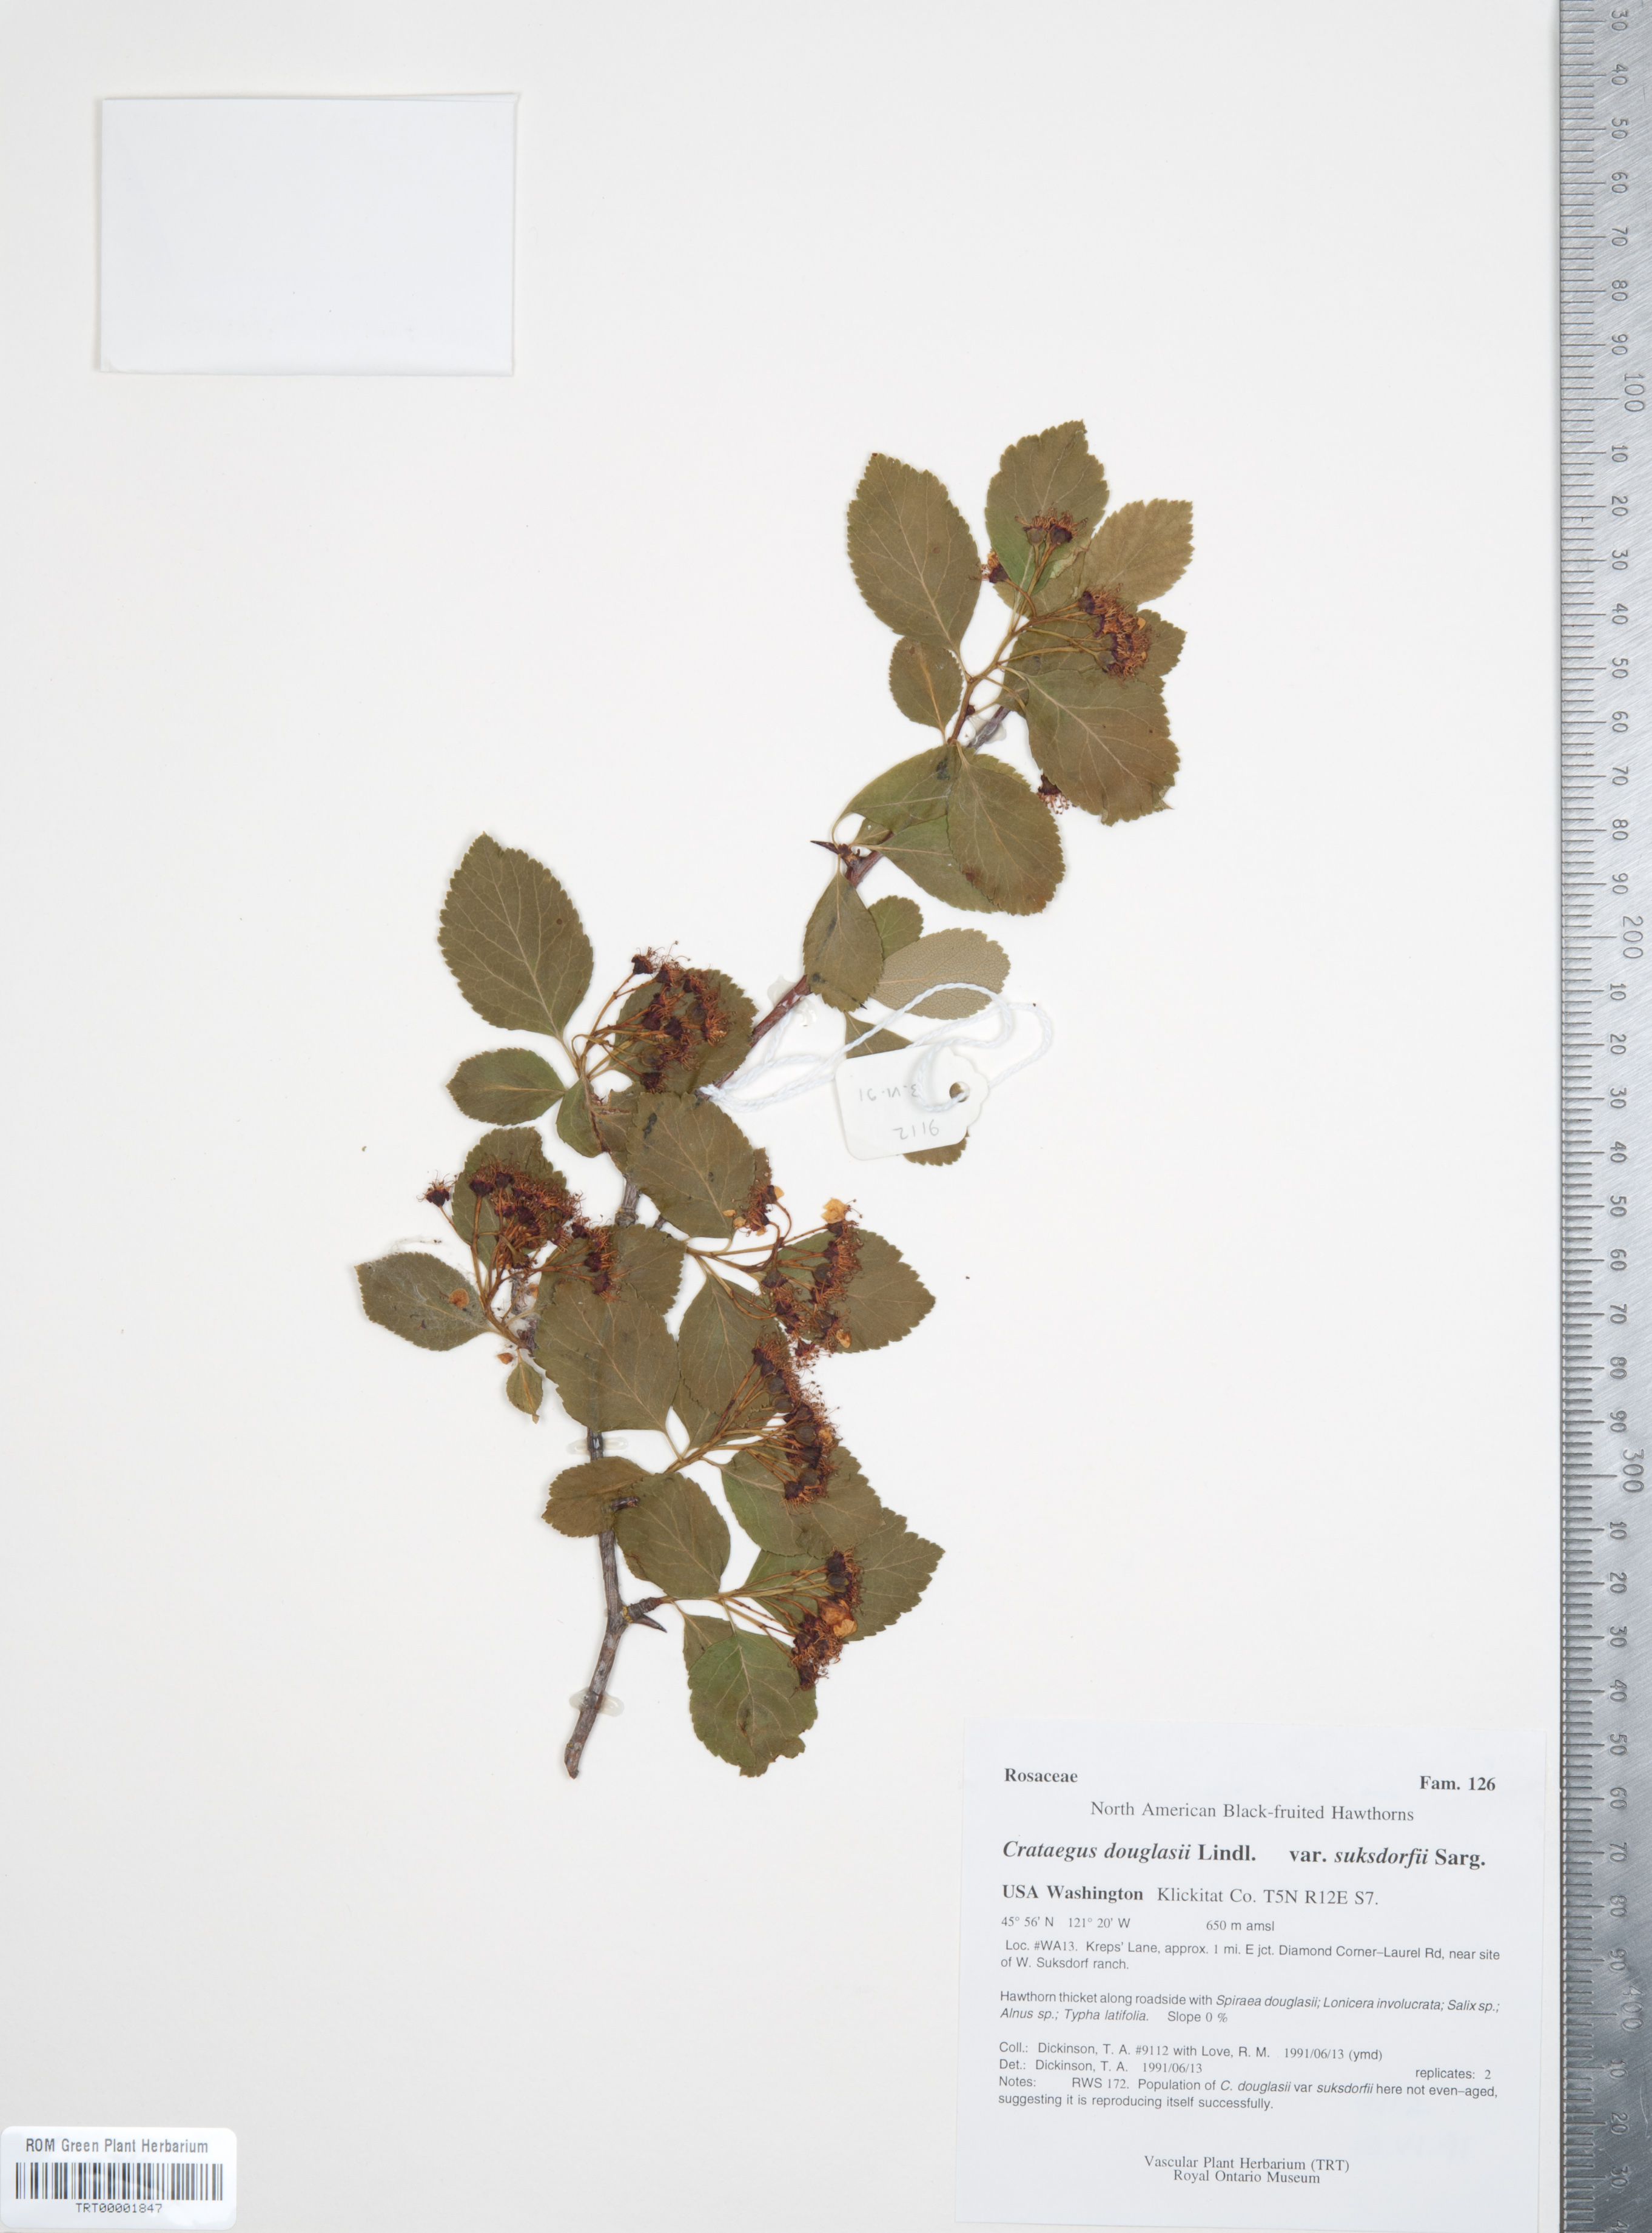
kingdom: Plantae
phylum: Tracheophyta
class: Magnoliopsida
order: Rosales
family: Rosaceae
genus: Crataegus
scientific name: Crataegus gaylussacia
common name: Huckleberry hawthorn
